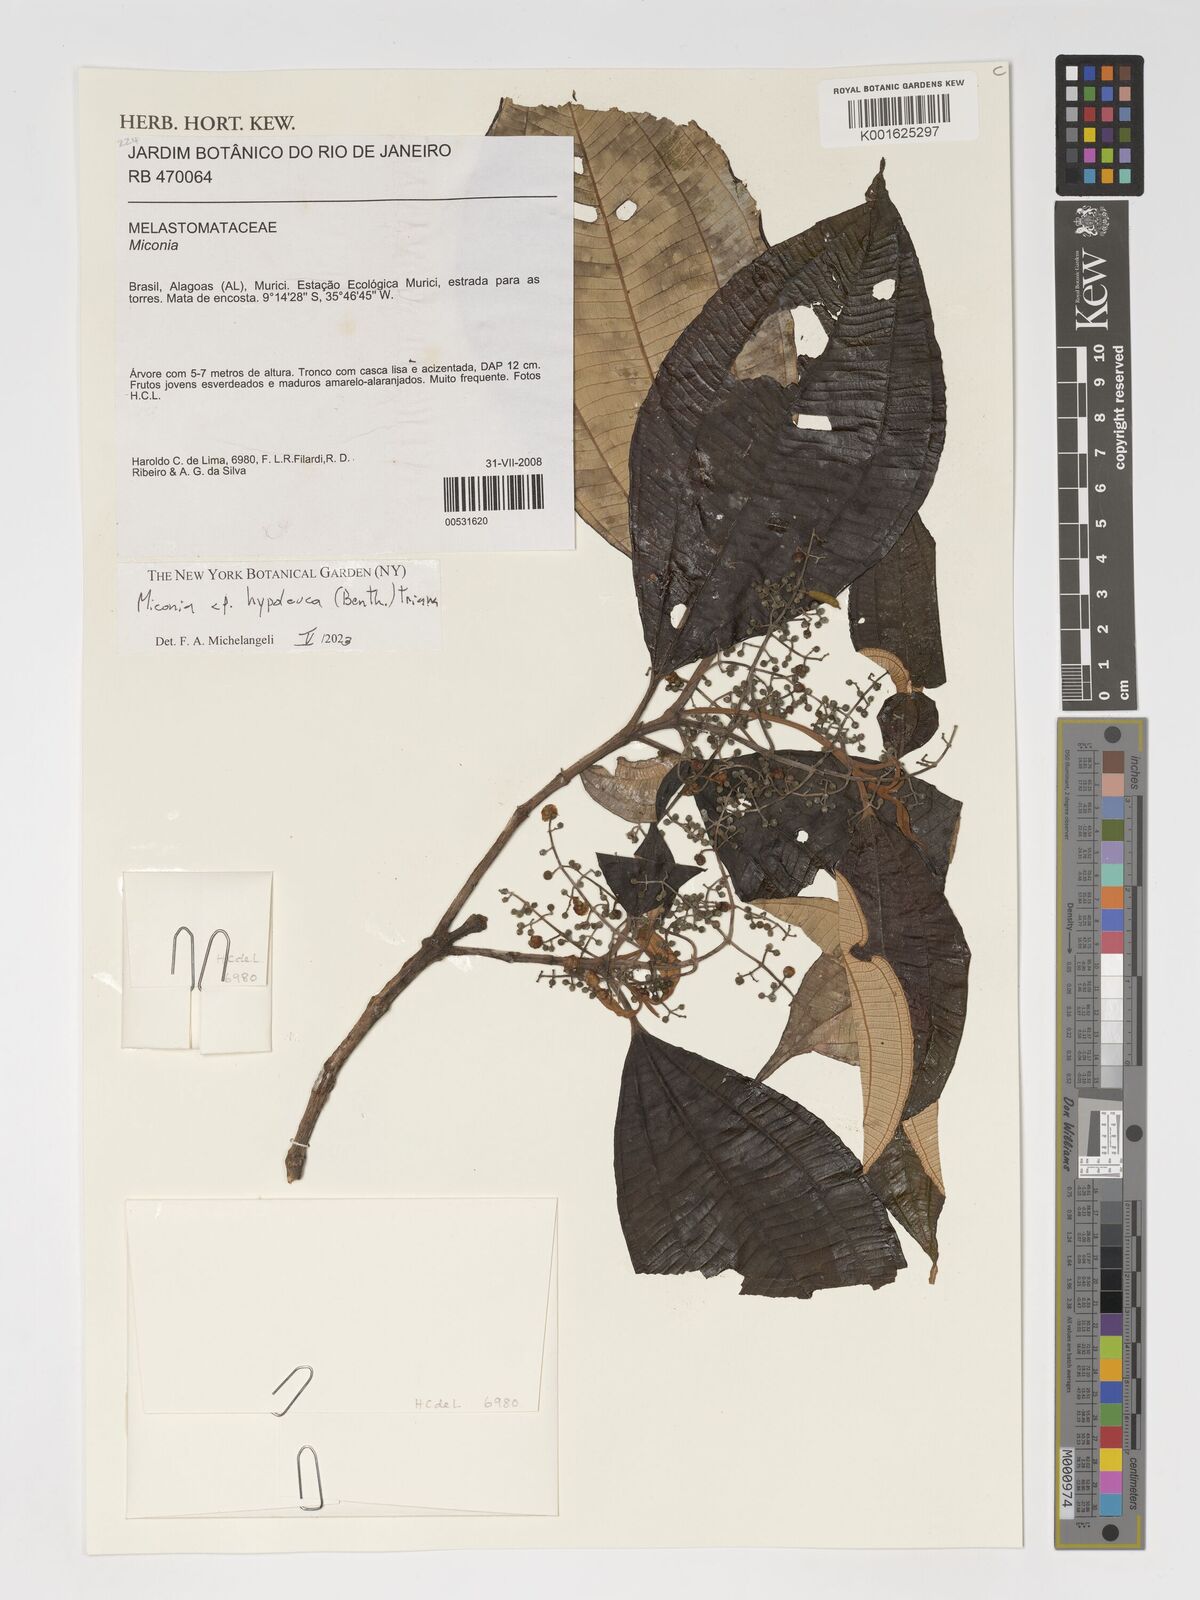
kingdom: Plantae
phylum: Tracheophyta
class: Magnoliopsida
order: Myrtales
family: Melastomataceae
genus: Miconia
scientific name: Miconia hypoleuca
